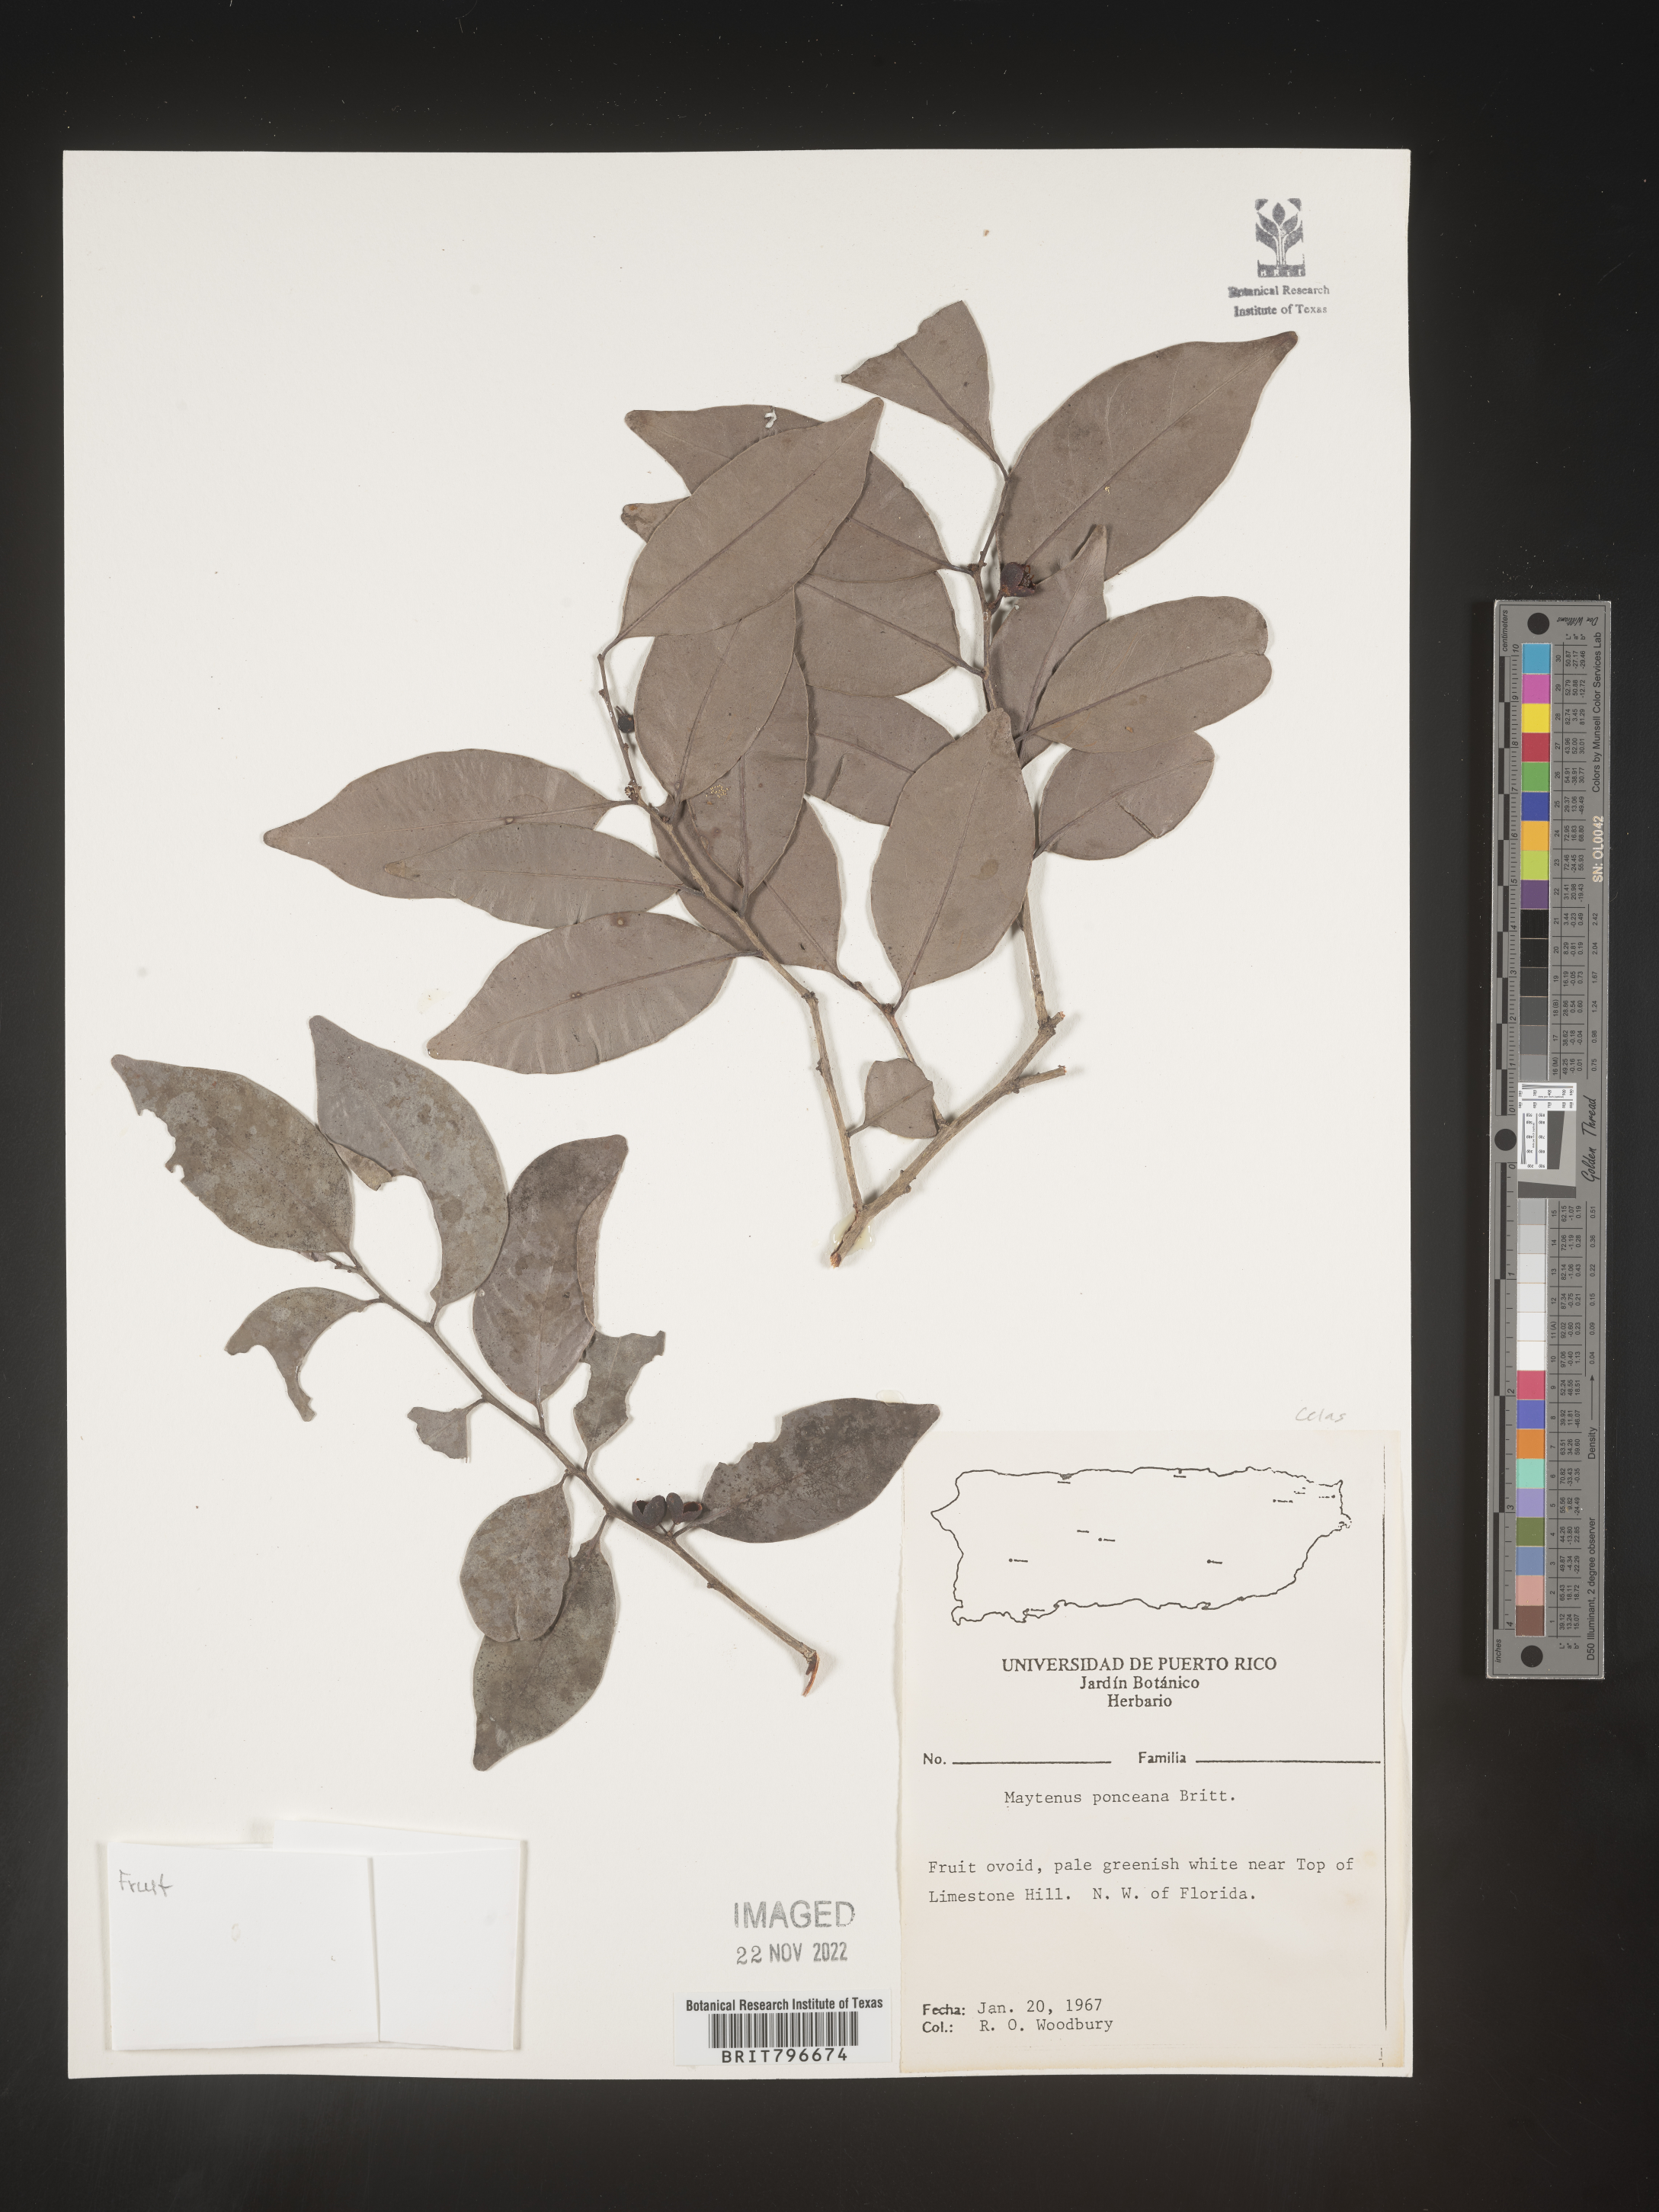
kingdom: Plantae
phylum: Tracheophyta
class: Magnoliopsida
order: Celastrales
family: Celastraceae
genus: Maytenus
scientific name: Maytenus
